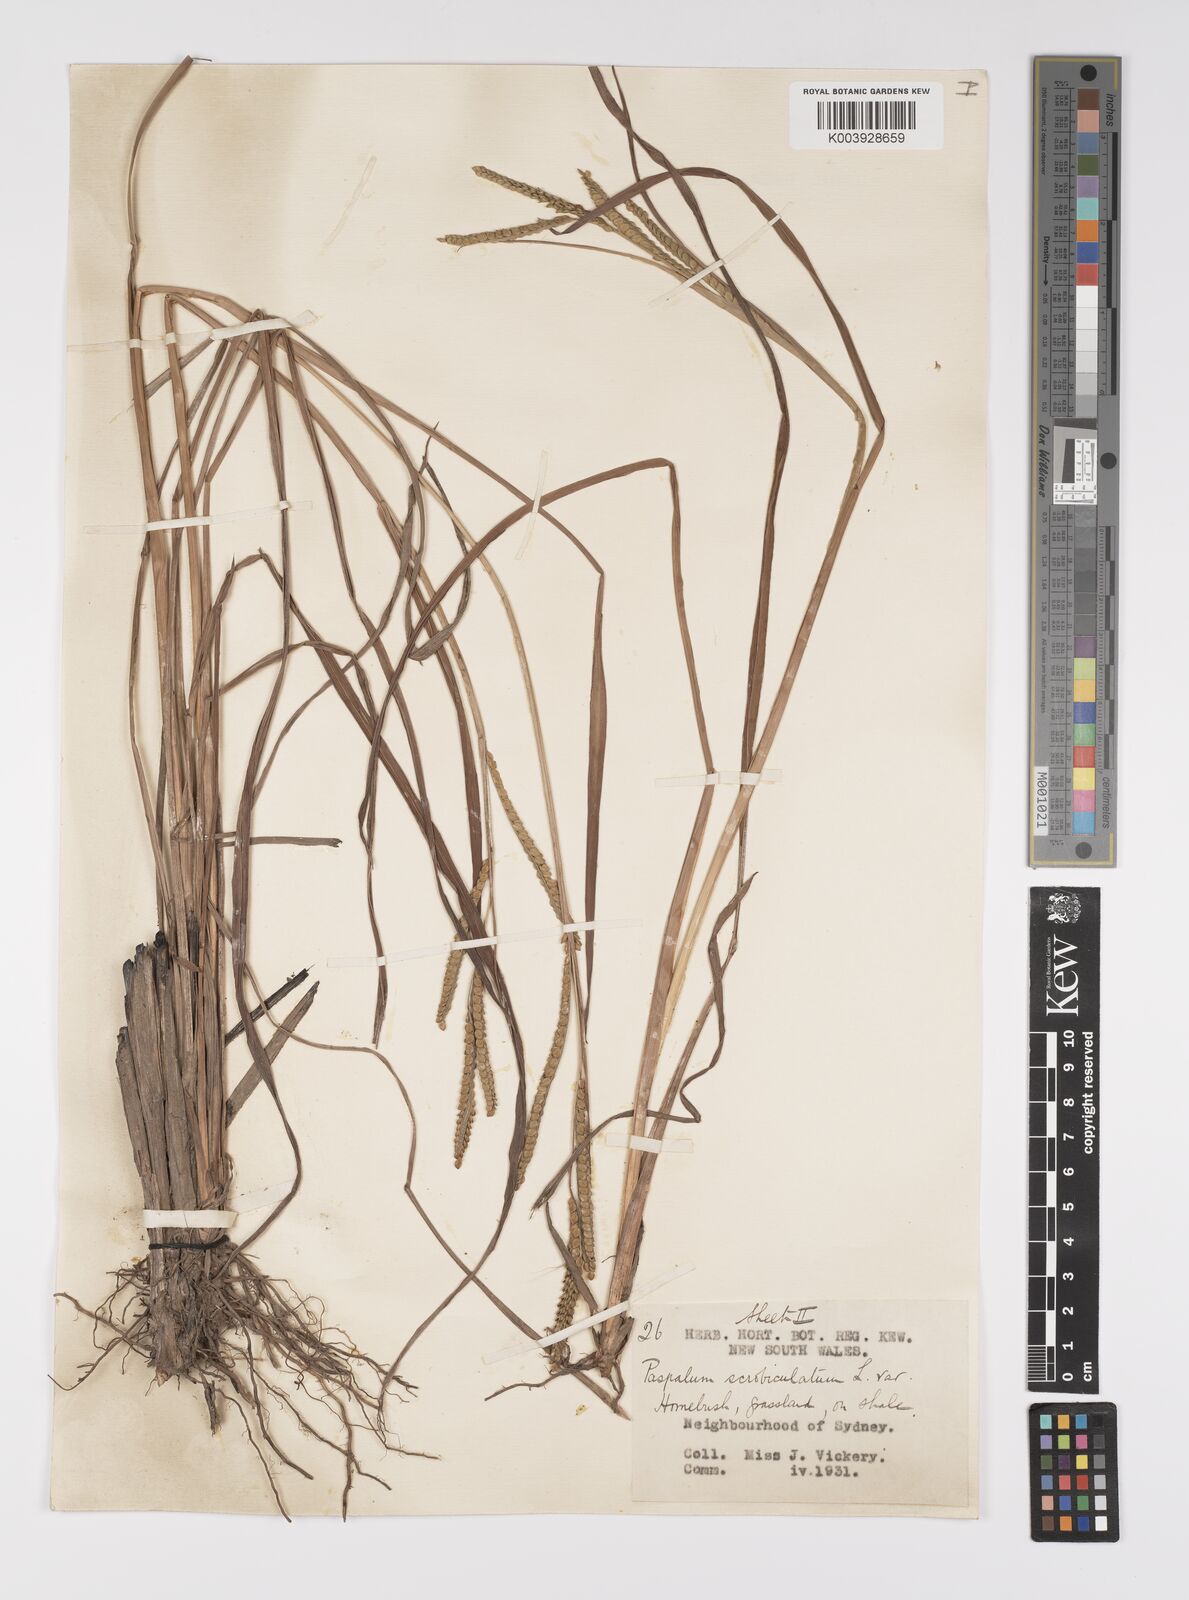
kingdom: Plantae
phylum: Tracheophyta
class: Liliopsida
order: Poales
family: Poaceae
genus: Paspalum
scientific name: Paspalum scrobiculatum
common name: Kodo millet
